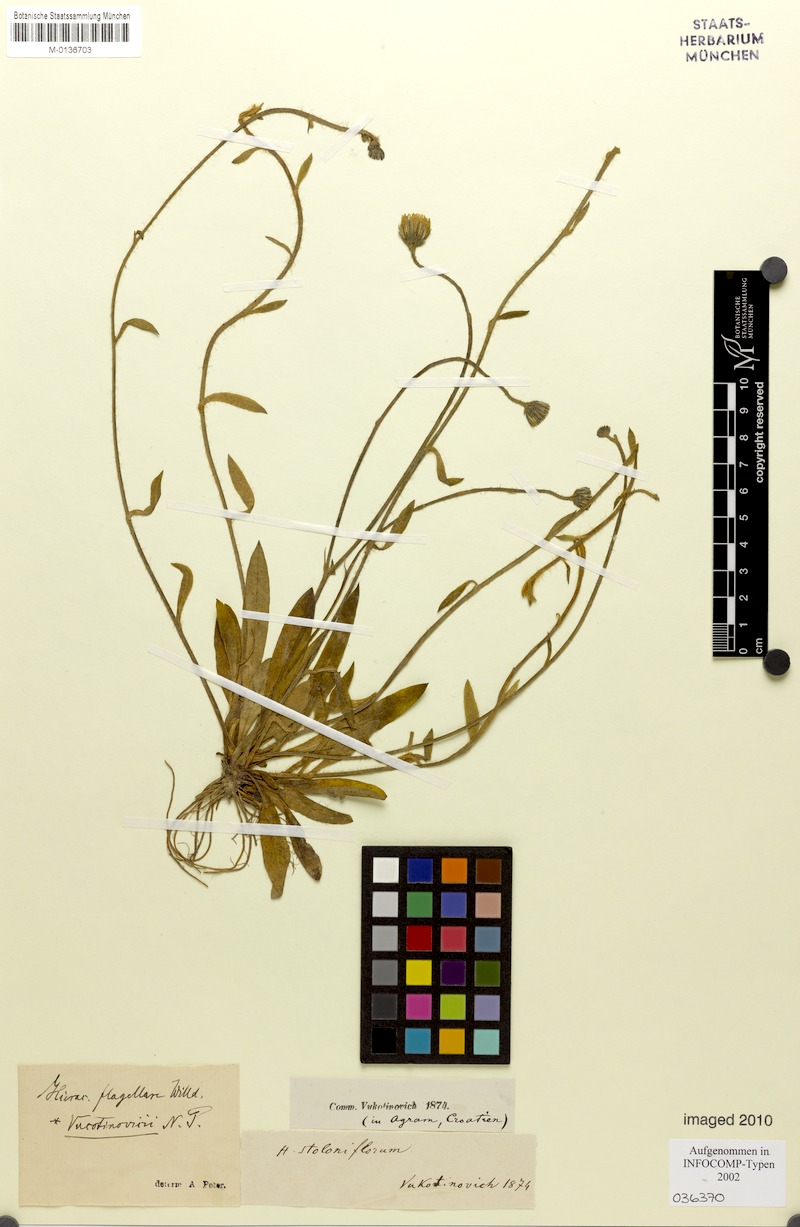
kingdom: Plantae
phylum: Tracheophyta
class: Magnoliopsida
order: Asterales
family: Asteraceae
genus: Pilosella
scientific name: Pilosella
